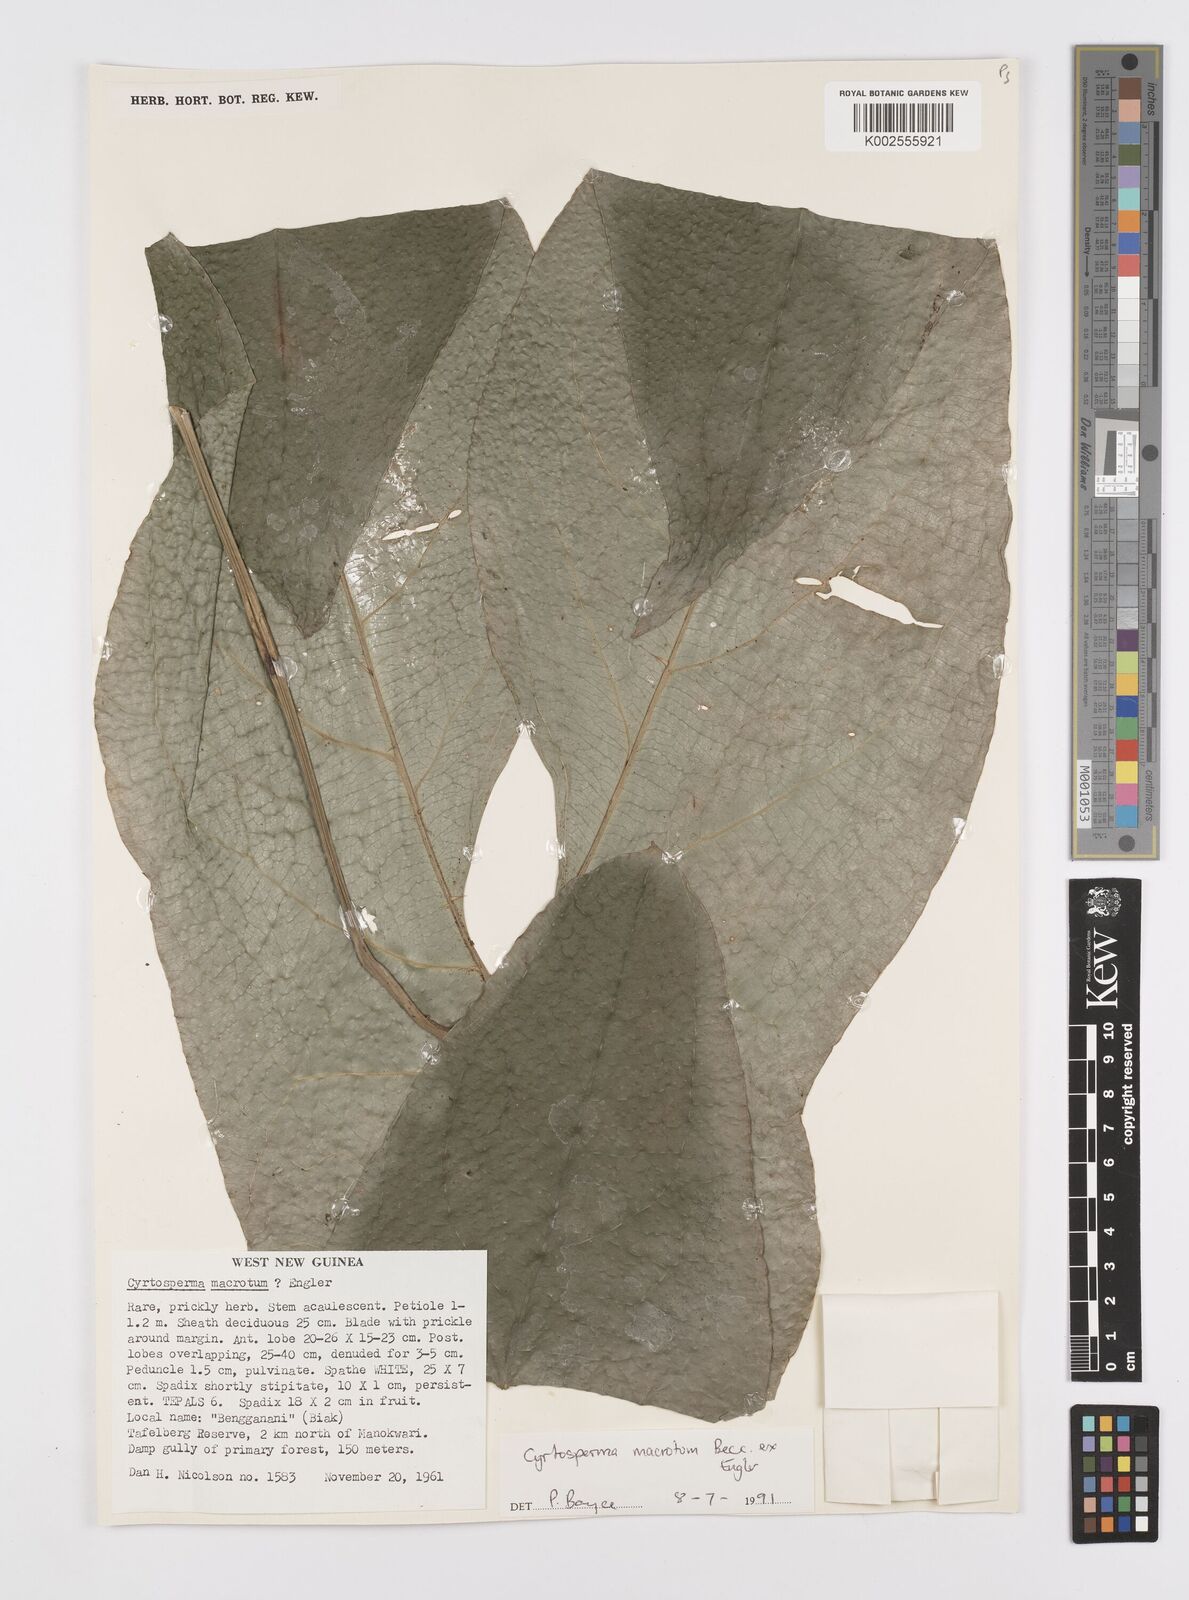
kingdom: Plantae
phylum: Tracheophyta
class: Liliopsida
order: Alismatales
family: Araceae
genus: Cyrtosperma
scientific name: Cyrtosperma macrotum
